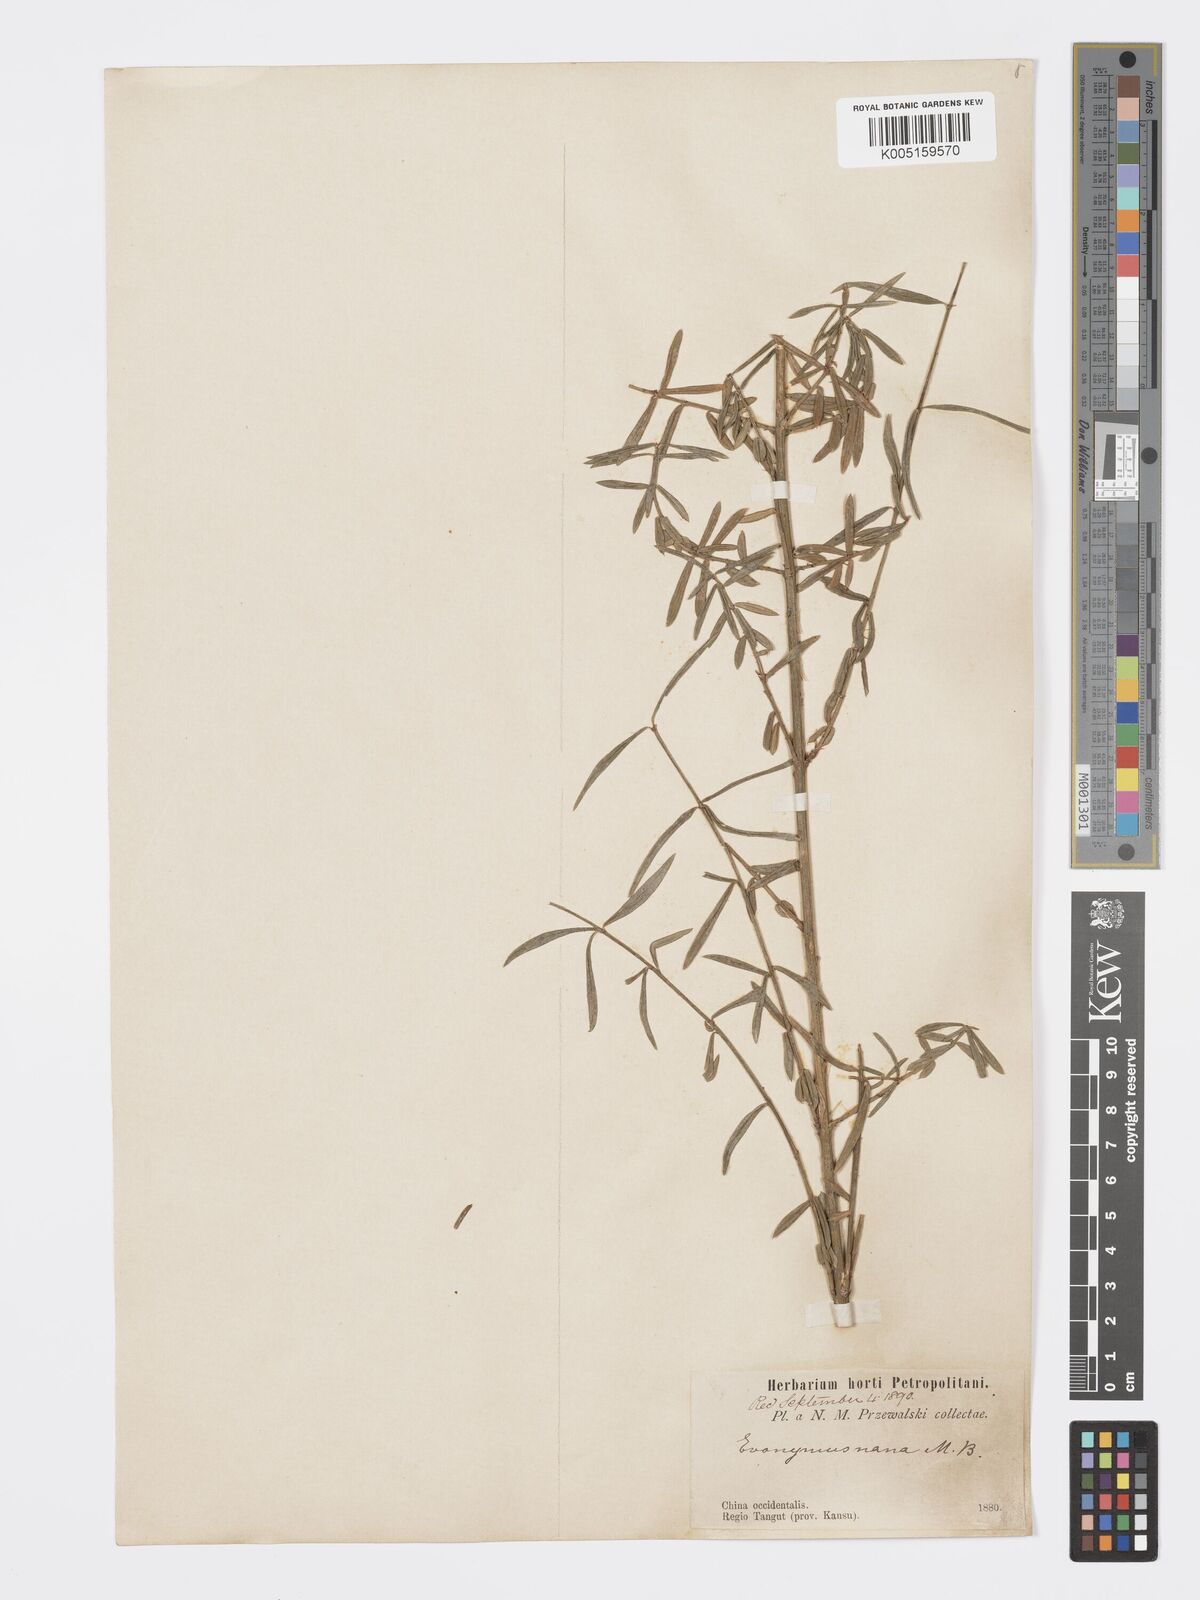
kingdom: Plantae
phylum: Tracheophyta
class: Magnoliopsida
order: Celastrales
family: Celastraceae
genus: Euonymus
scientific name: Euonymus nanus
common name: Dwarf spindle
